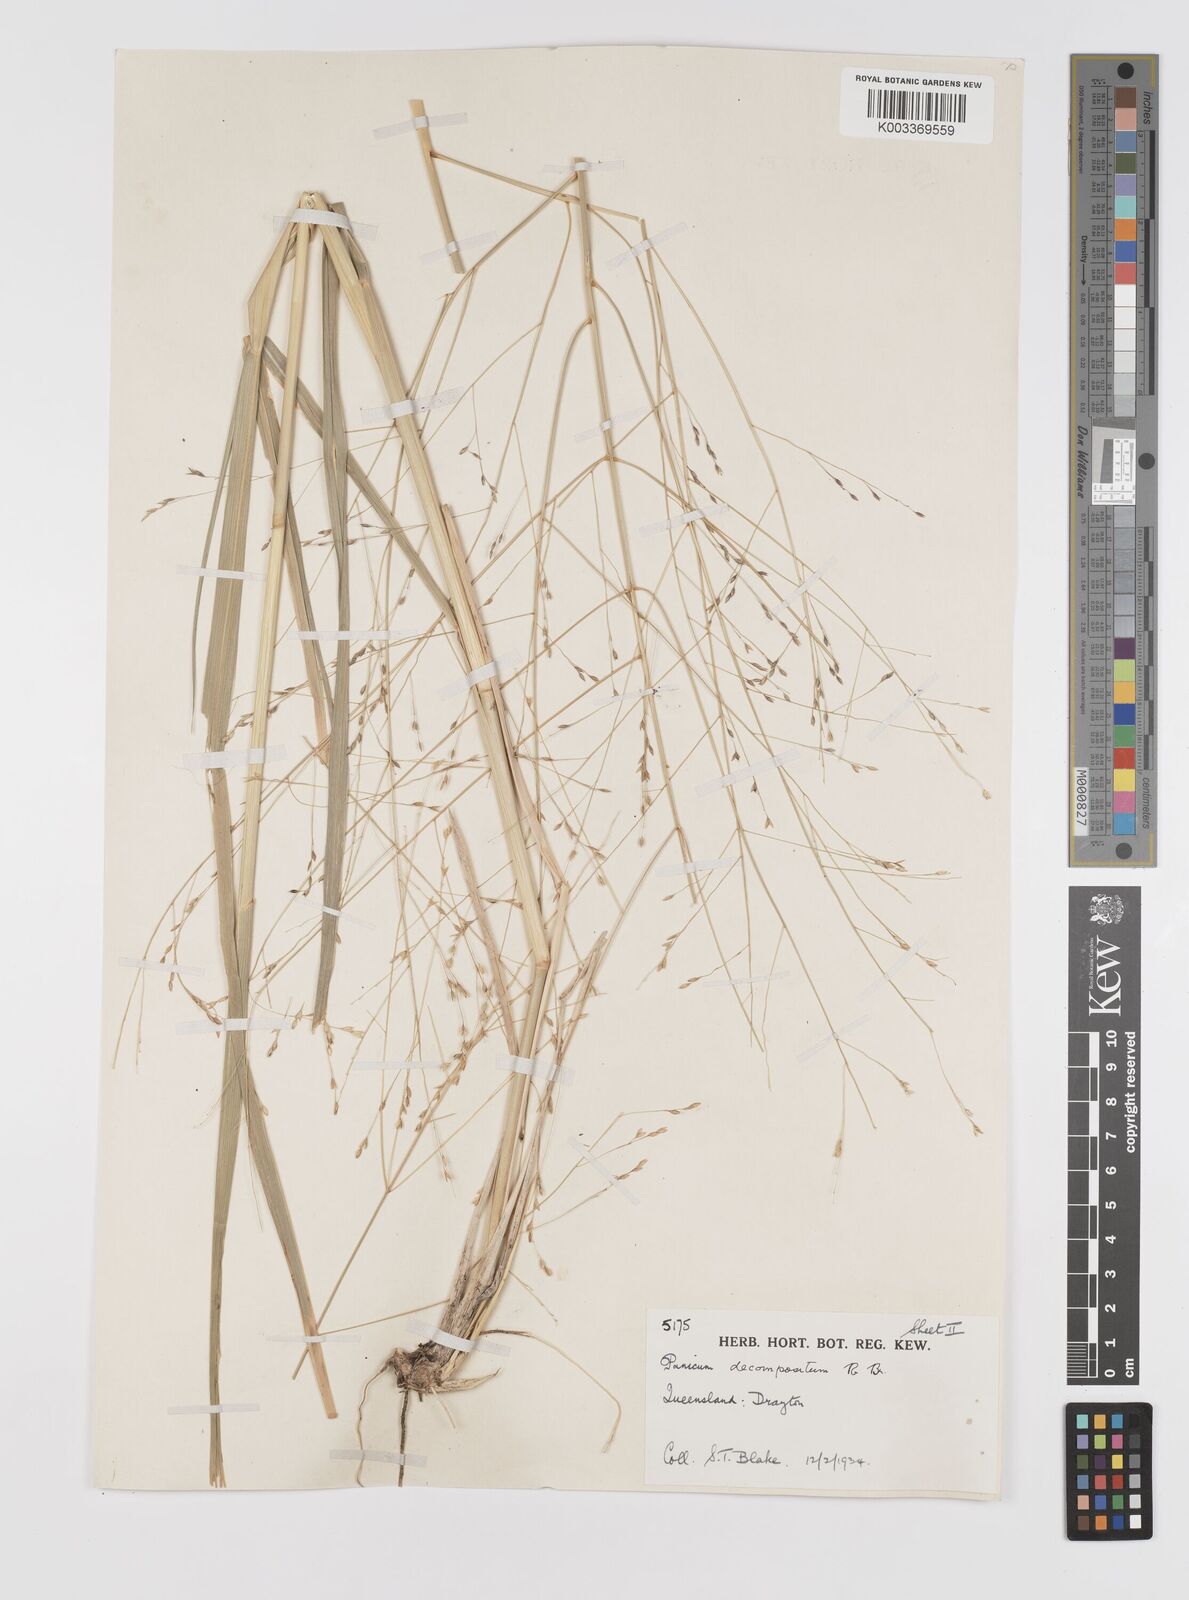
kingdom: Plantae
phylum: Tracheophyta
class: Liliopsida
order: Poales
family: Poaceae
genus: Panicum
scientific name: Panicum decompositum
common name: Australian millet
